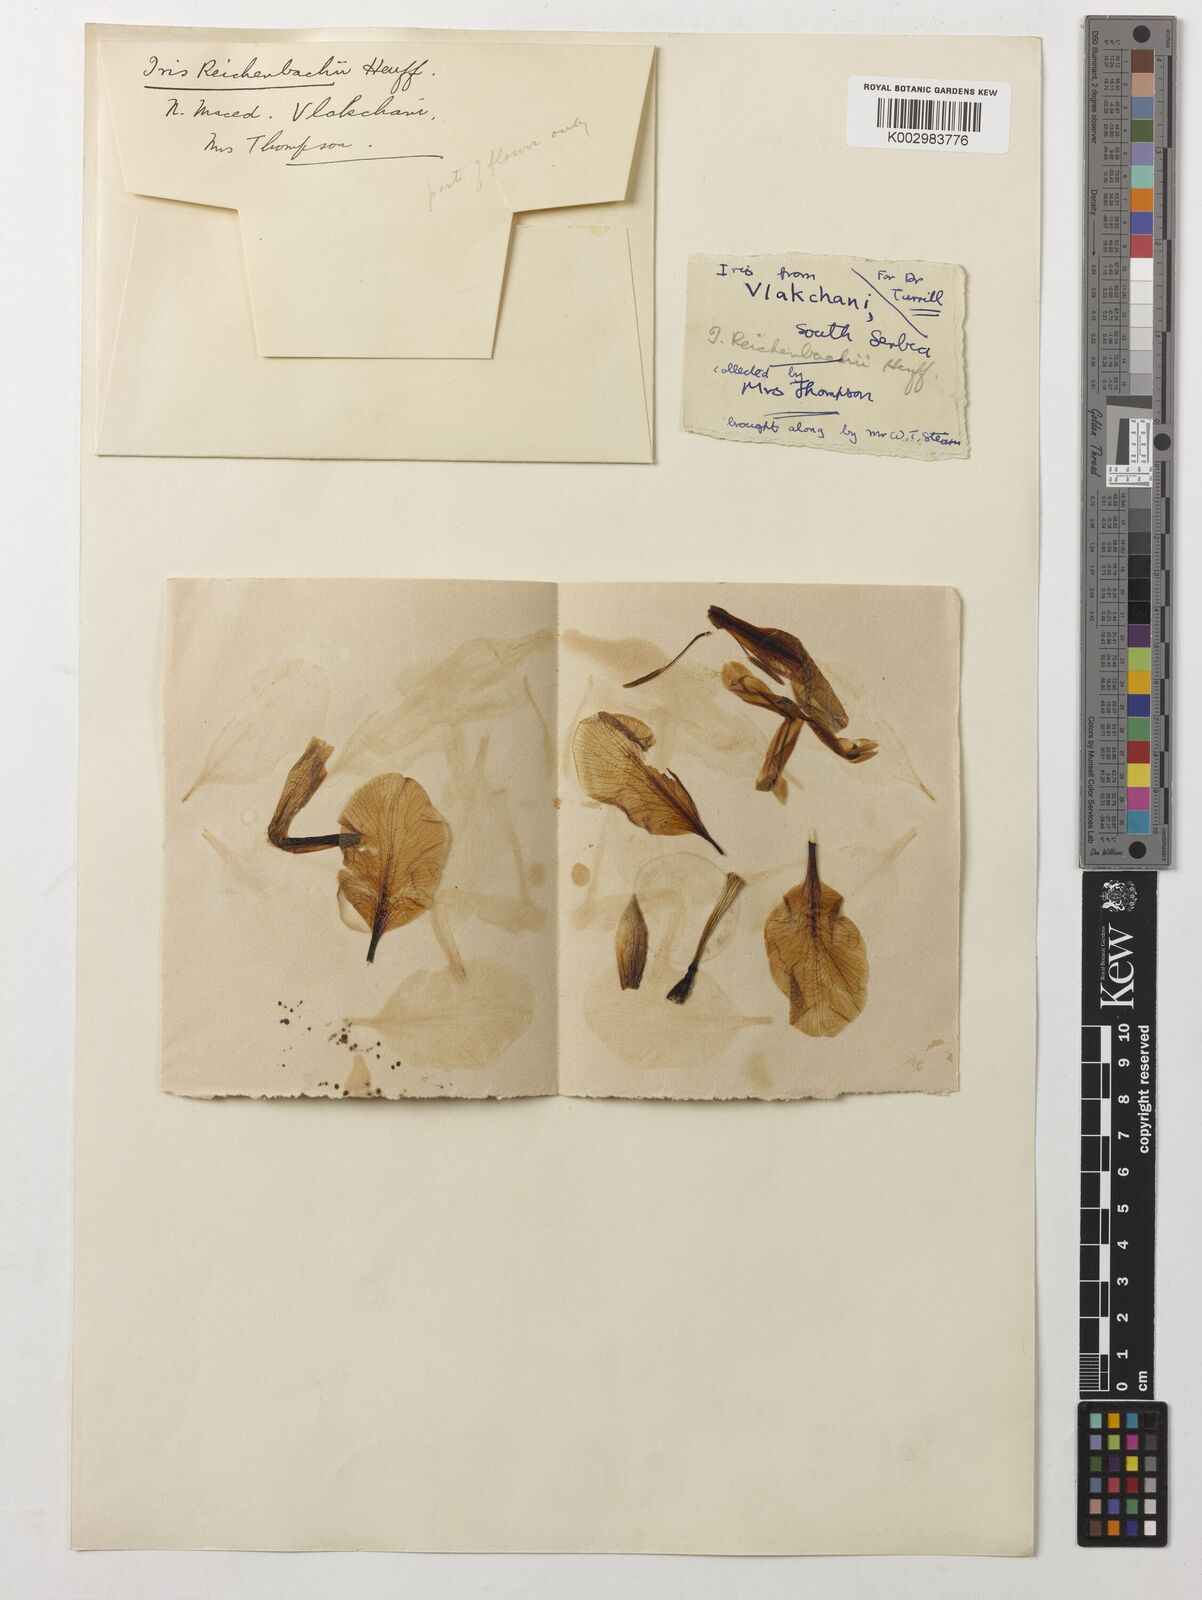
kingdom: Plantae
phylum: Tracheophyta
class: Liliopsida
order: Asparagales
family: Iridaceae
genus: Iris
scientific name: Iris reichenbachii
